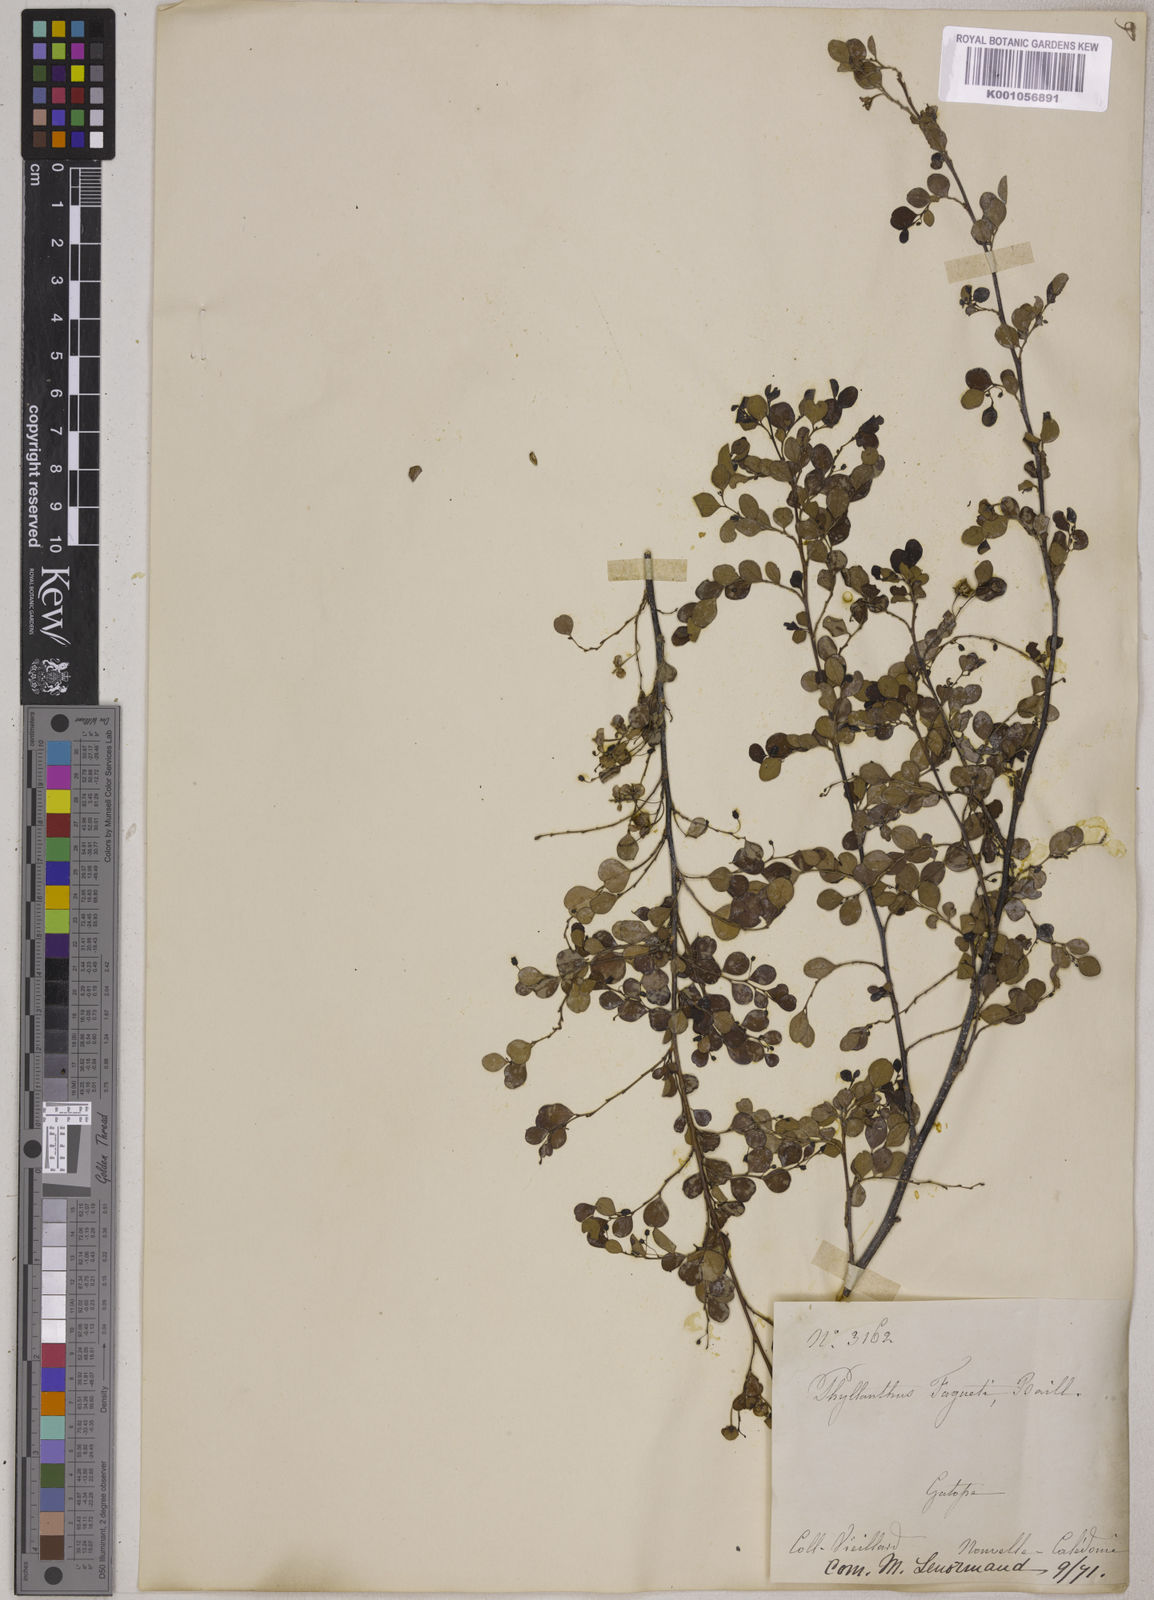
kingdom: Plantae
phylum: Tracheophyta
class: Magnoliopsida
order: Malpighiales
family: Phyllanthaceae
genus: Phyllanthus
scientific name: Phyllanthus faguetii
